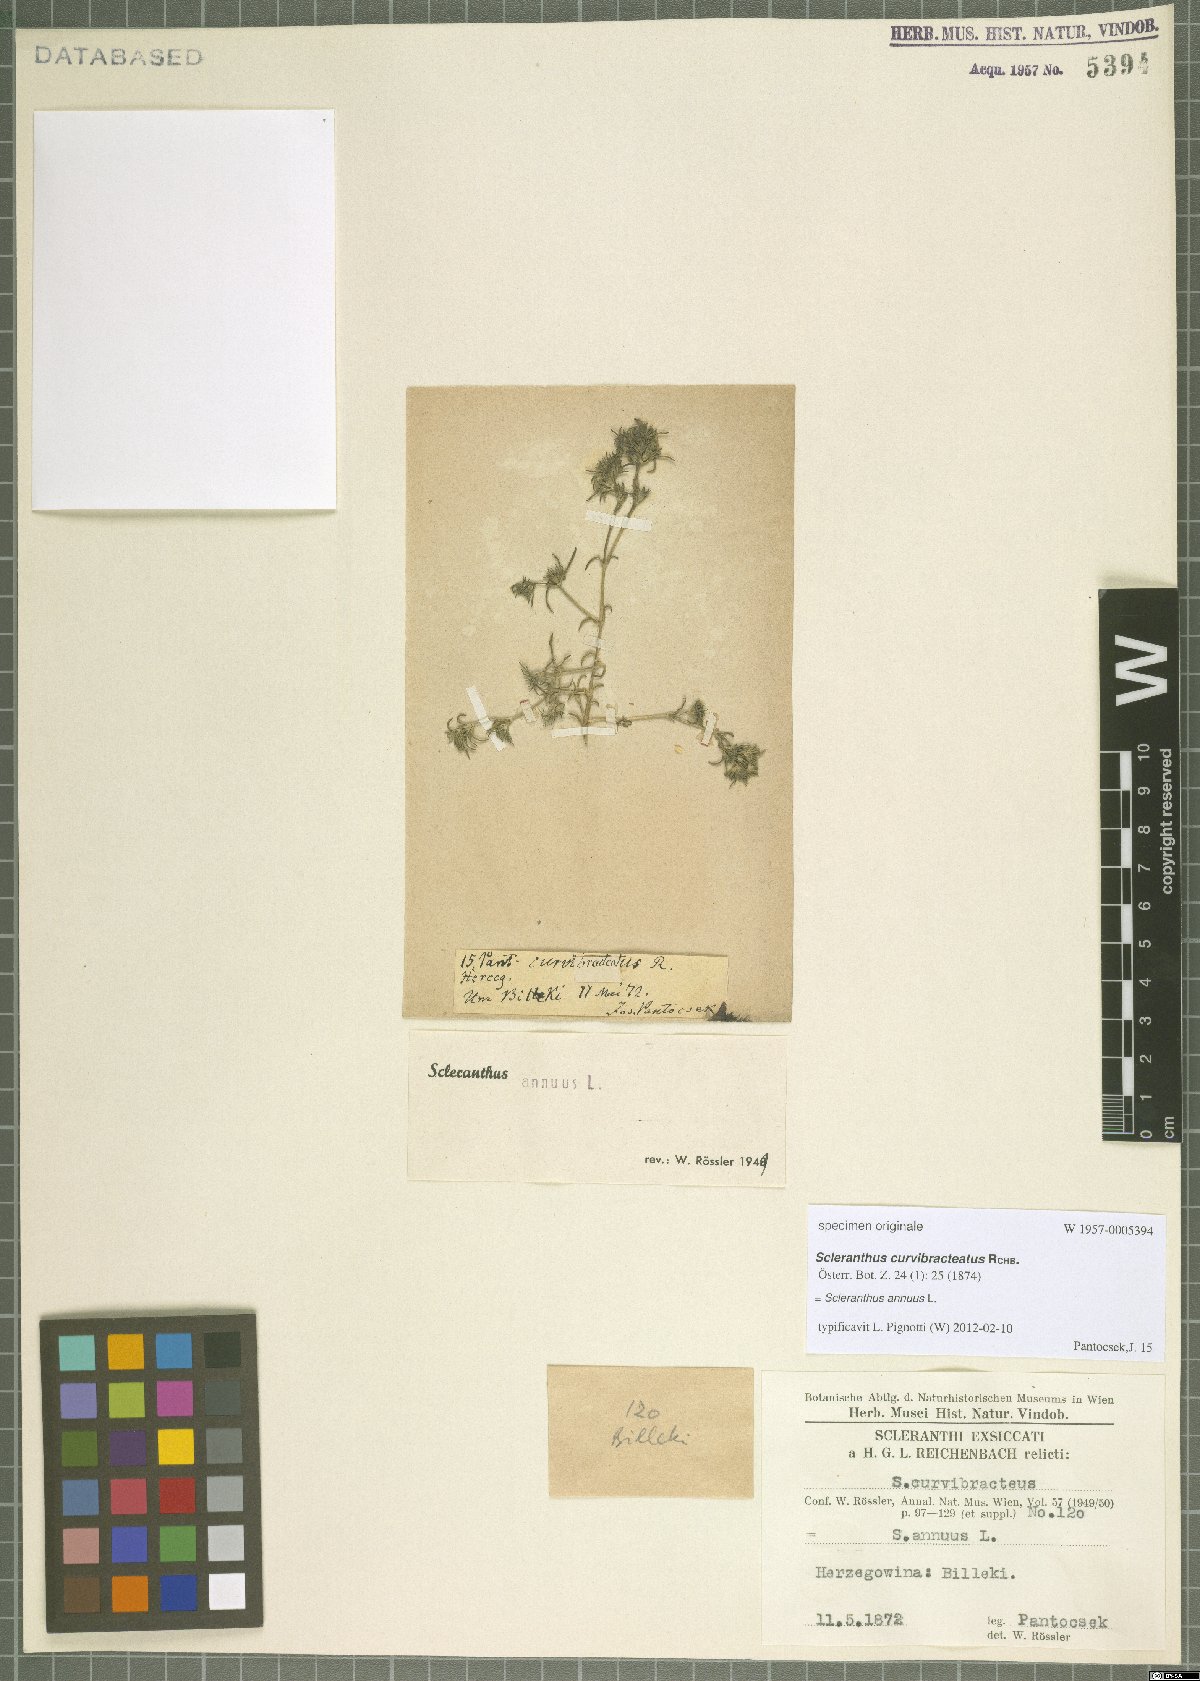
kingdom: Plantae
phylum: Tracheophyta
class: Magnoliopsida
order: Caryophyllales
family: Caryophyllaceae
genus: Scleranthus
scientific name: Scleranthus annuus
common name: Annual knawel
